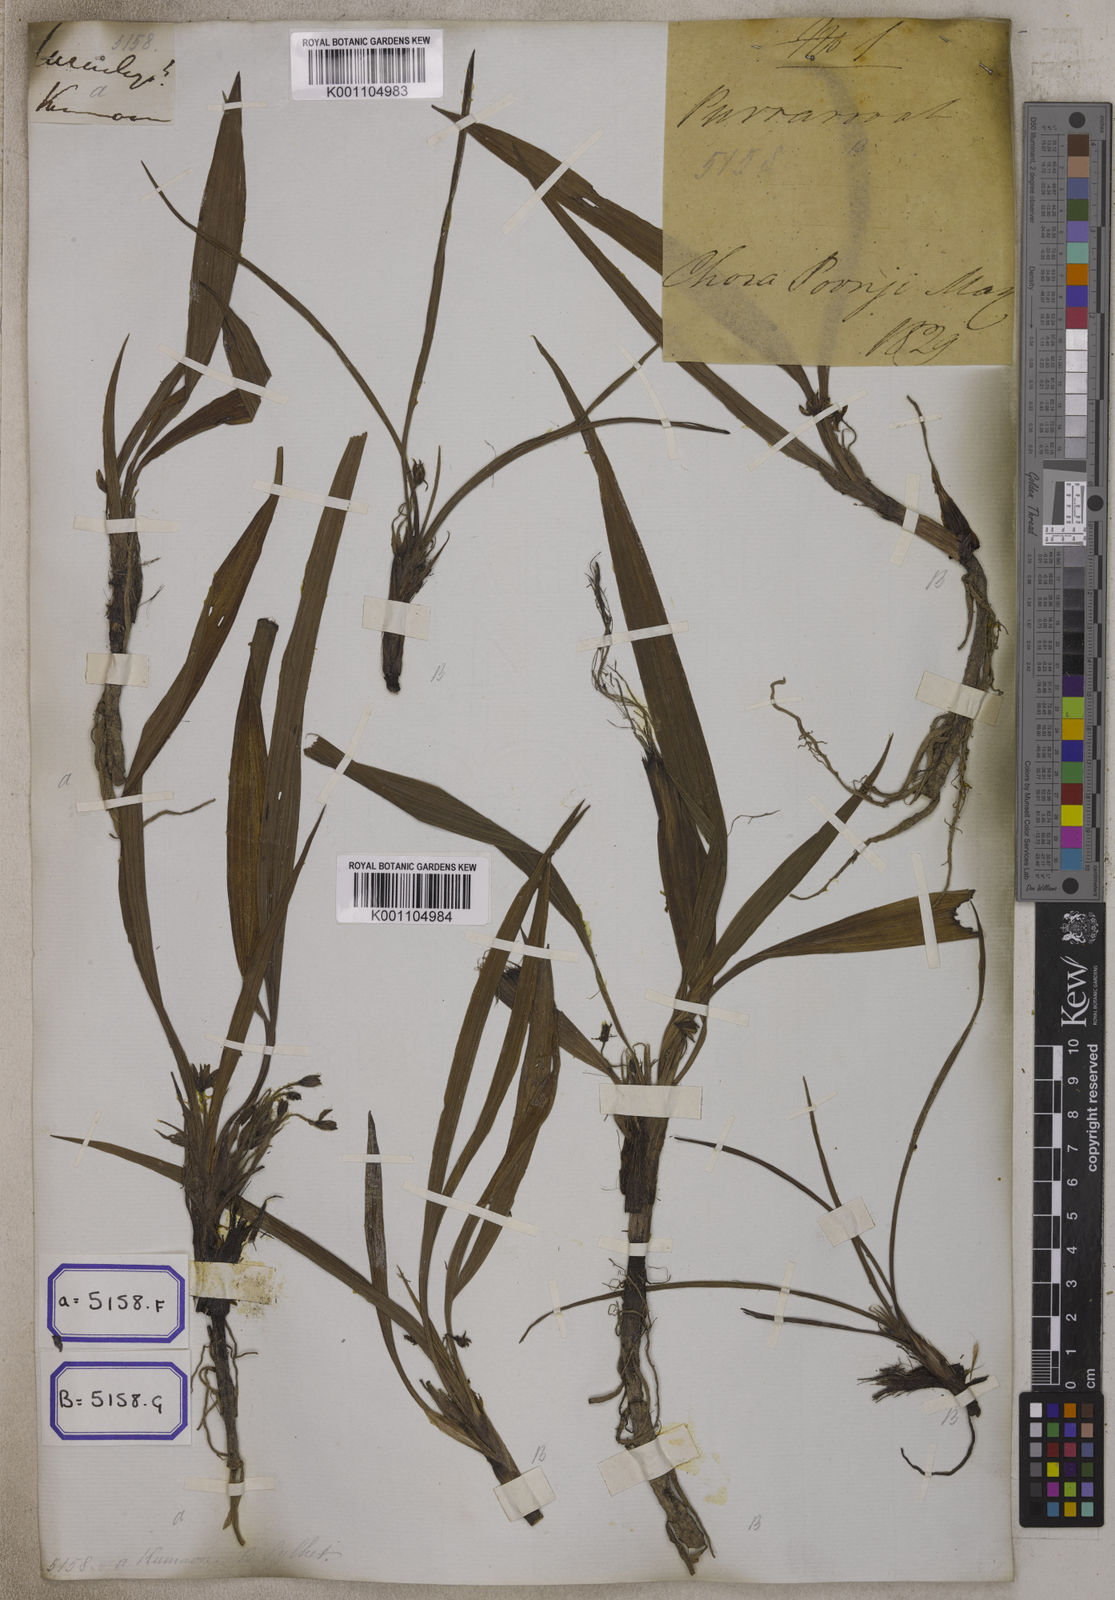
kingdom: Plantae
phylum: Tracheophyta
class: Liliopsida
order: Asparagales
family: Hypoxidaceae
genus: Curculigo
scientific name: Curculigo orchioides
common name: Golden eye-grass
